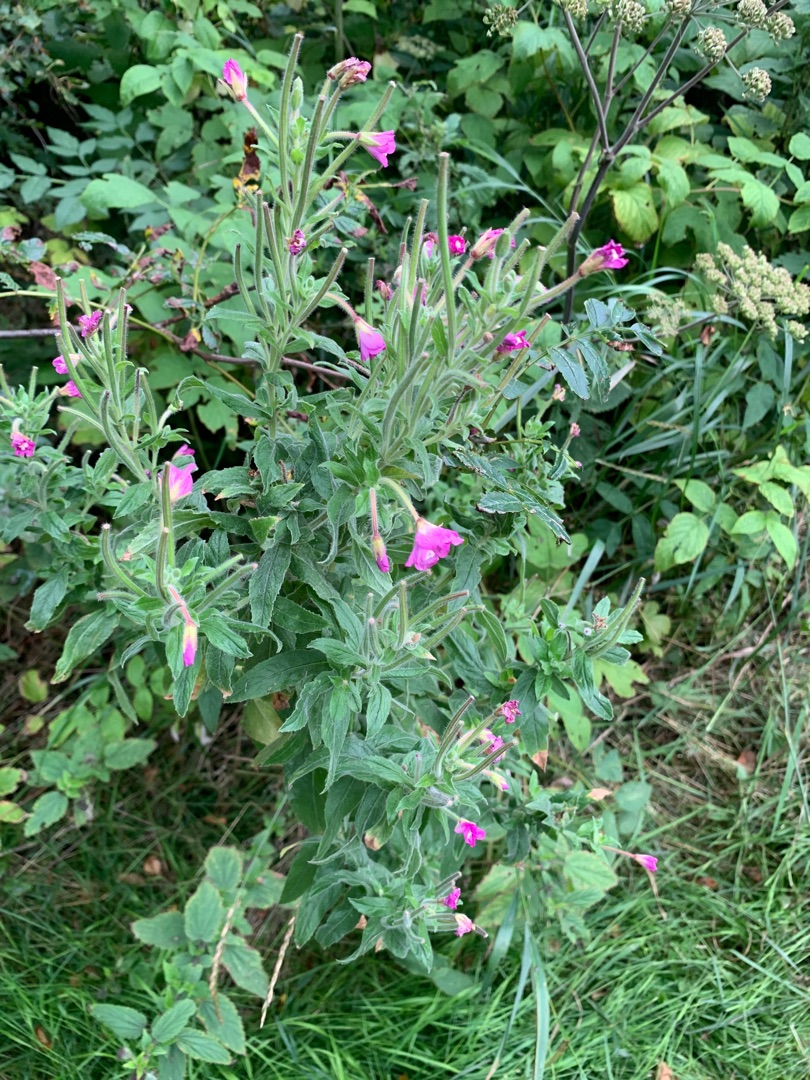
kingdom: Plantae
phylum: Tracheophyta
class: Magnoliopsida
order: Myrtales
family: Onagraceae
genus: Epilobium
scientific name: Epilobium hirsutum
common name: Lådden dueurt
